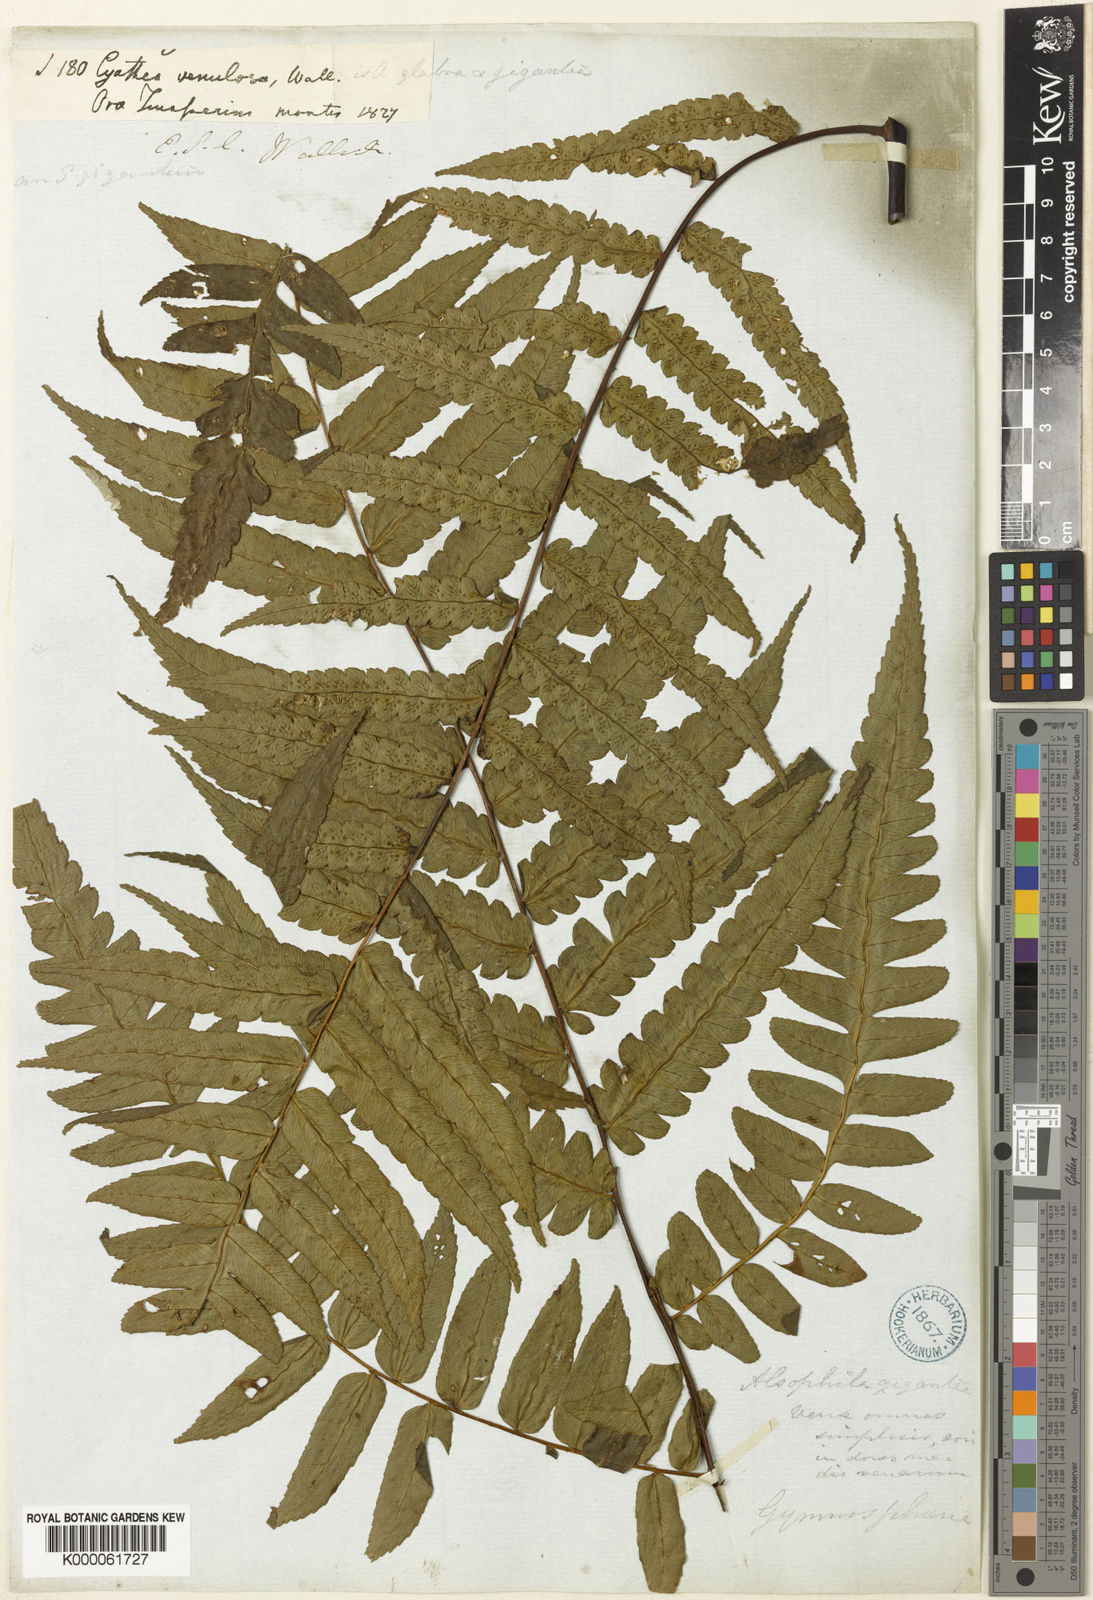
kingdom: Plantae
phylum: Tracheophyta
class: Polypodiopsida
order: Cyatheales
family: Cyatheaceae
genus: Gymnosphaera
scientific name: Gymnosphaera gigantea
